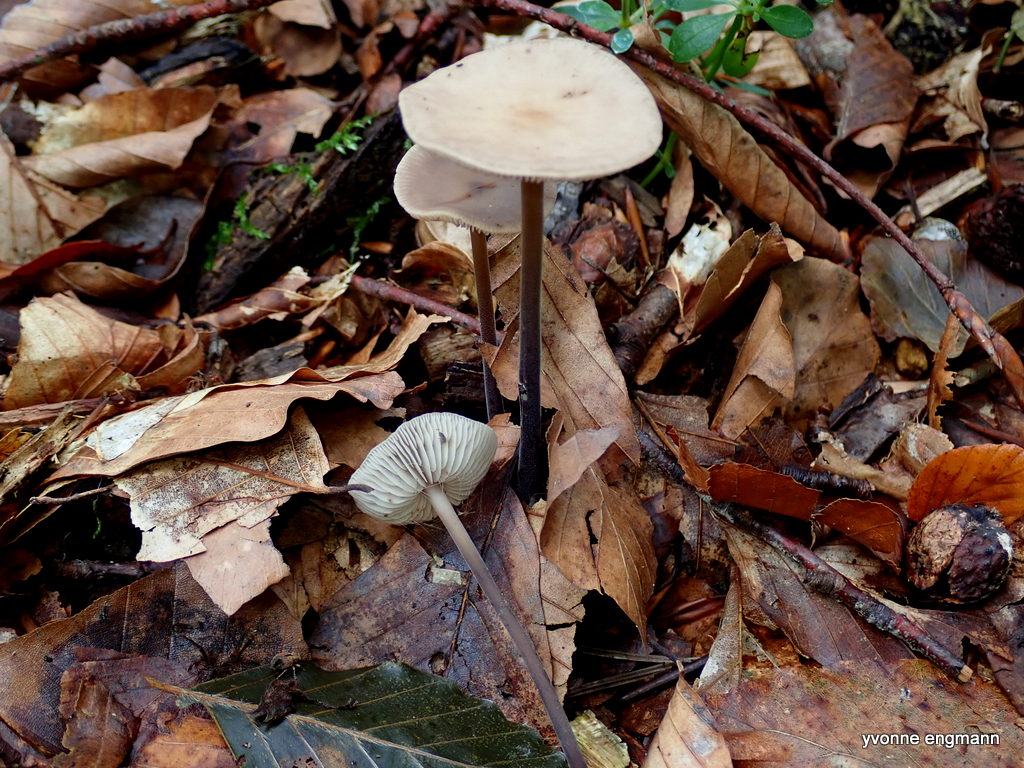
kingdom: Fungi
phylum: Basidiomycota
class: Agaricomycetes
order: Agaricales
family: Omphalotaceae
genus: Mycetinis
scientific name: Mycetinis alliaceus
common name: stor løghat
